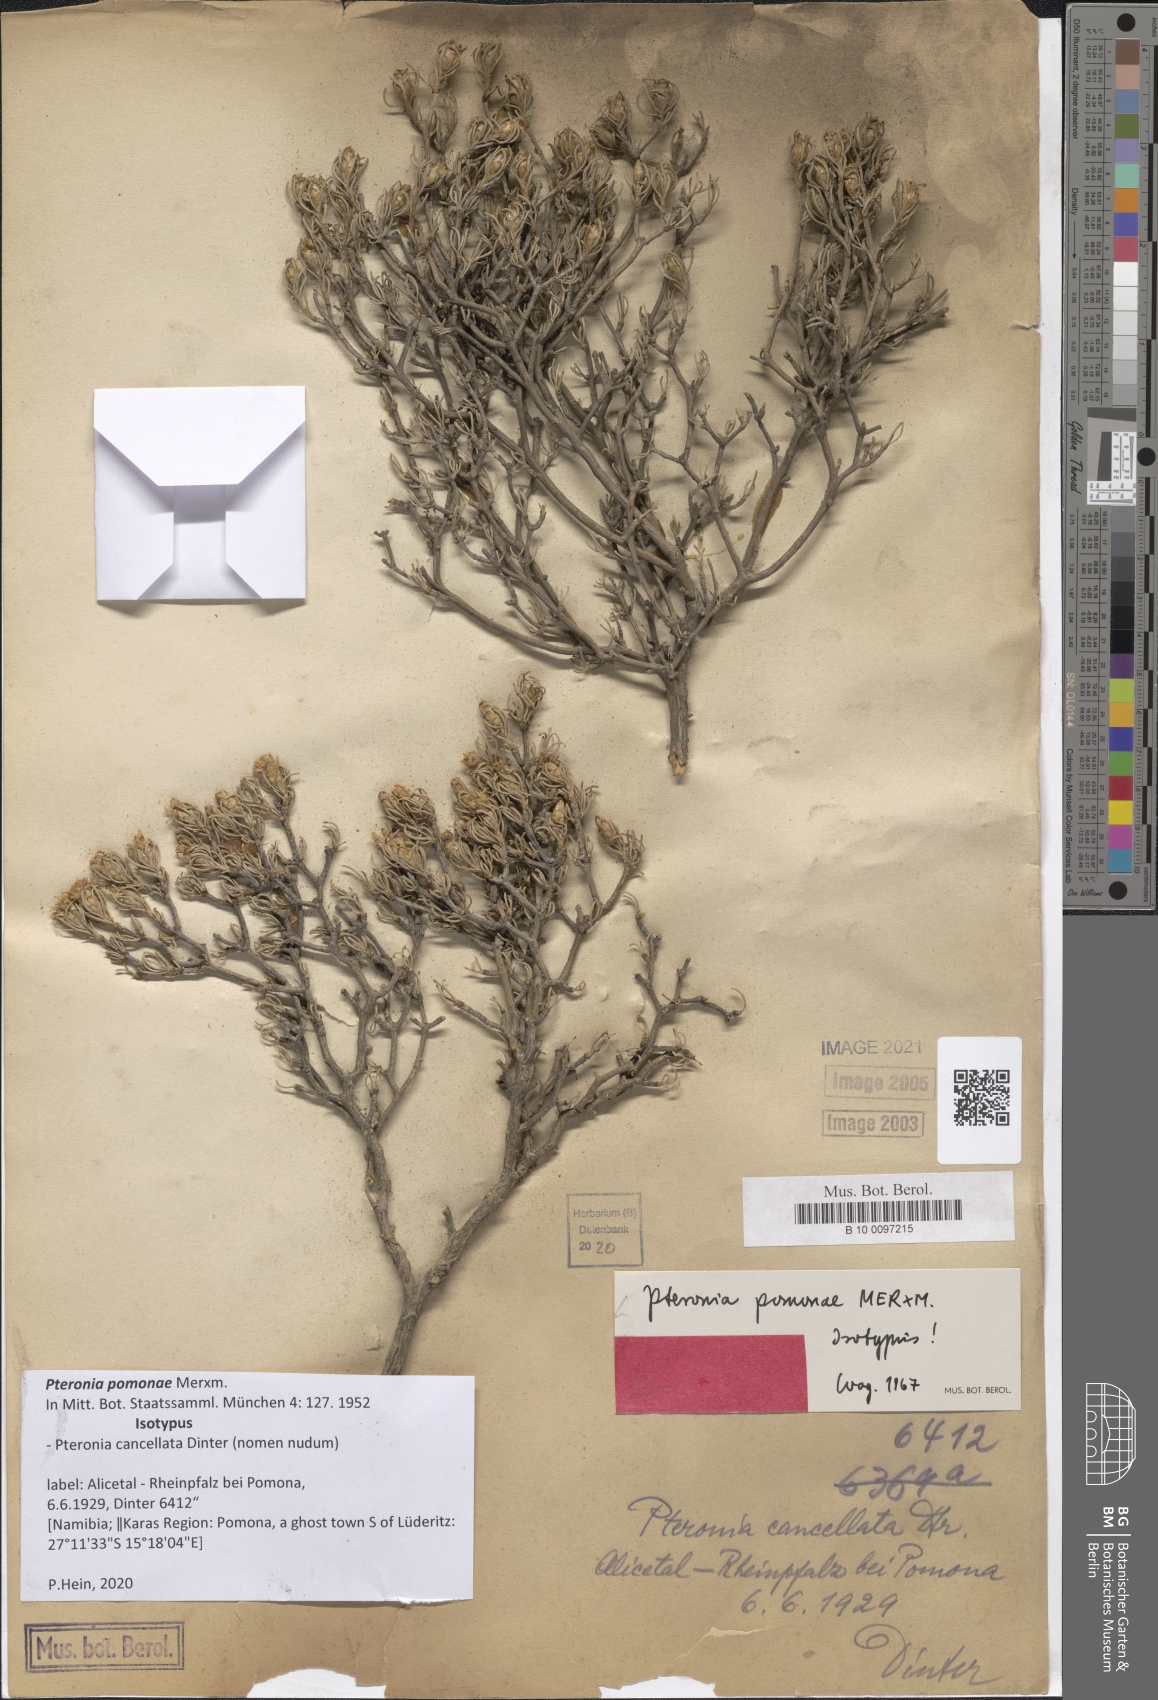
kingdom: Plantae
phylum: Tracheophyta
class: Magnoliopsida
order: Asterales
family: Asteraceae
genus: Pteronia
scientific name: Pteronia pomonae
